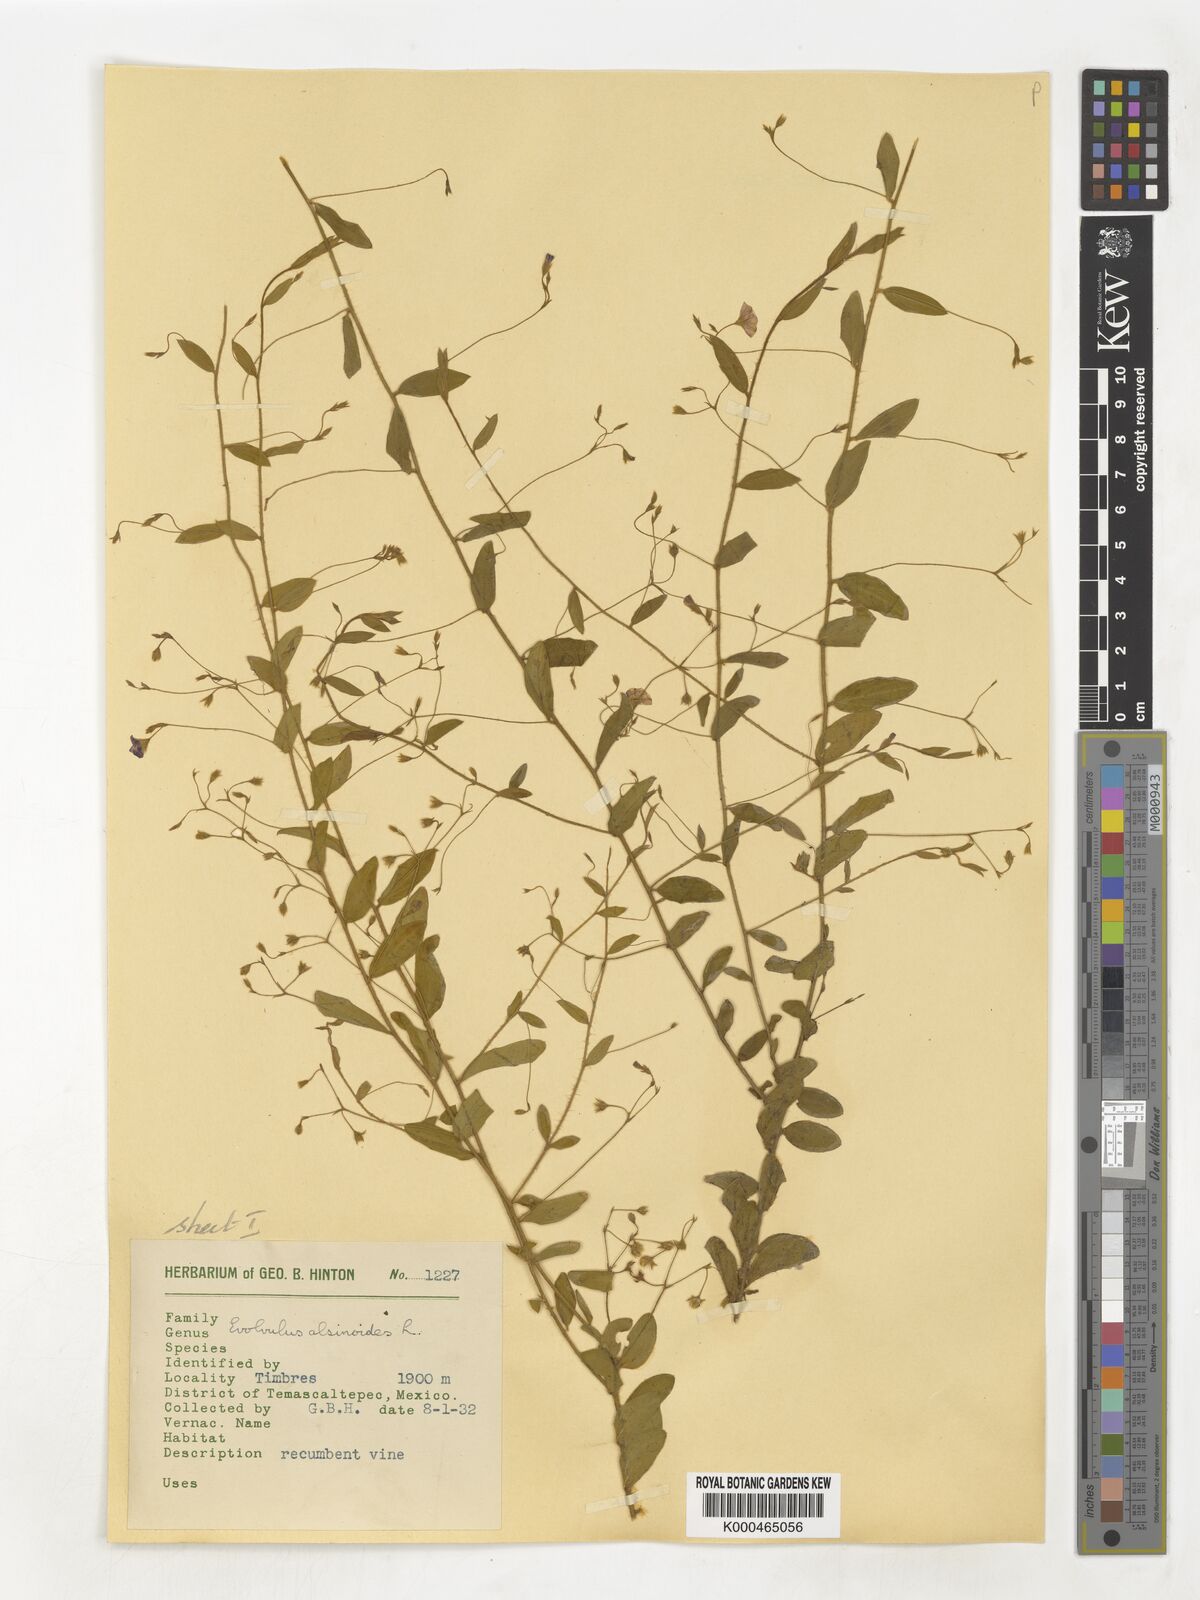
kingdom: Plantae
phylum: Tracheophyta
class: Magnoliopsida
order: Solanales
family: Convolvulaceae
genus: Evolvulus
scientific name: Evolvulus alsinoides
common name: Slender dwarf morning-glory
